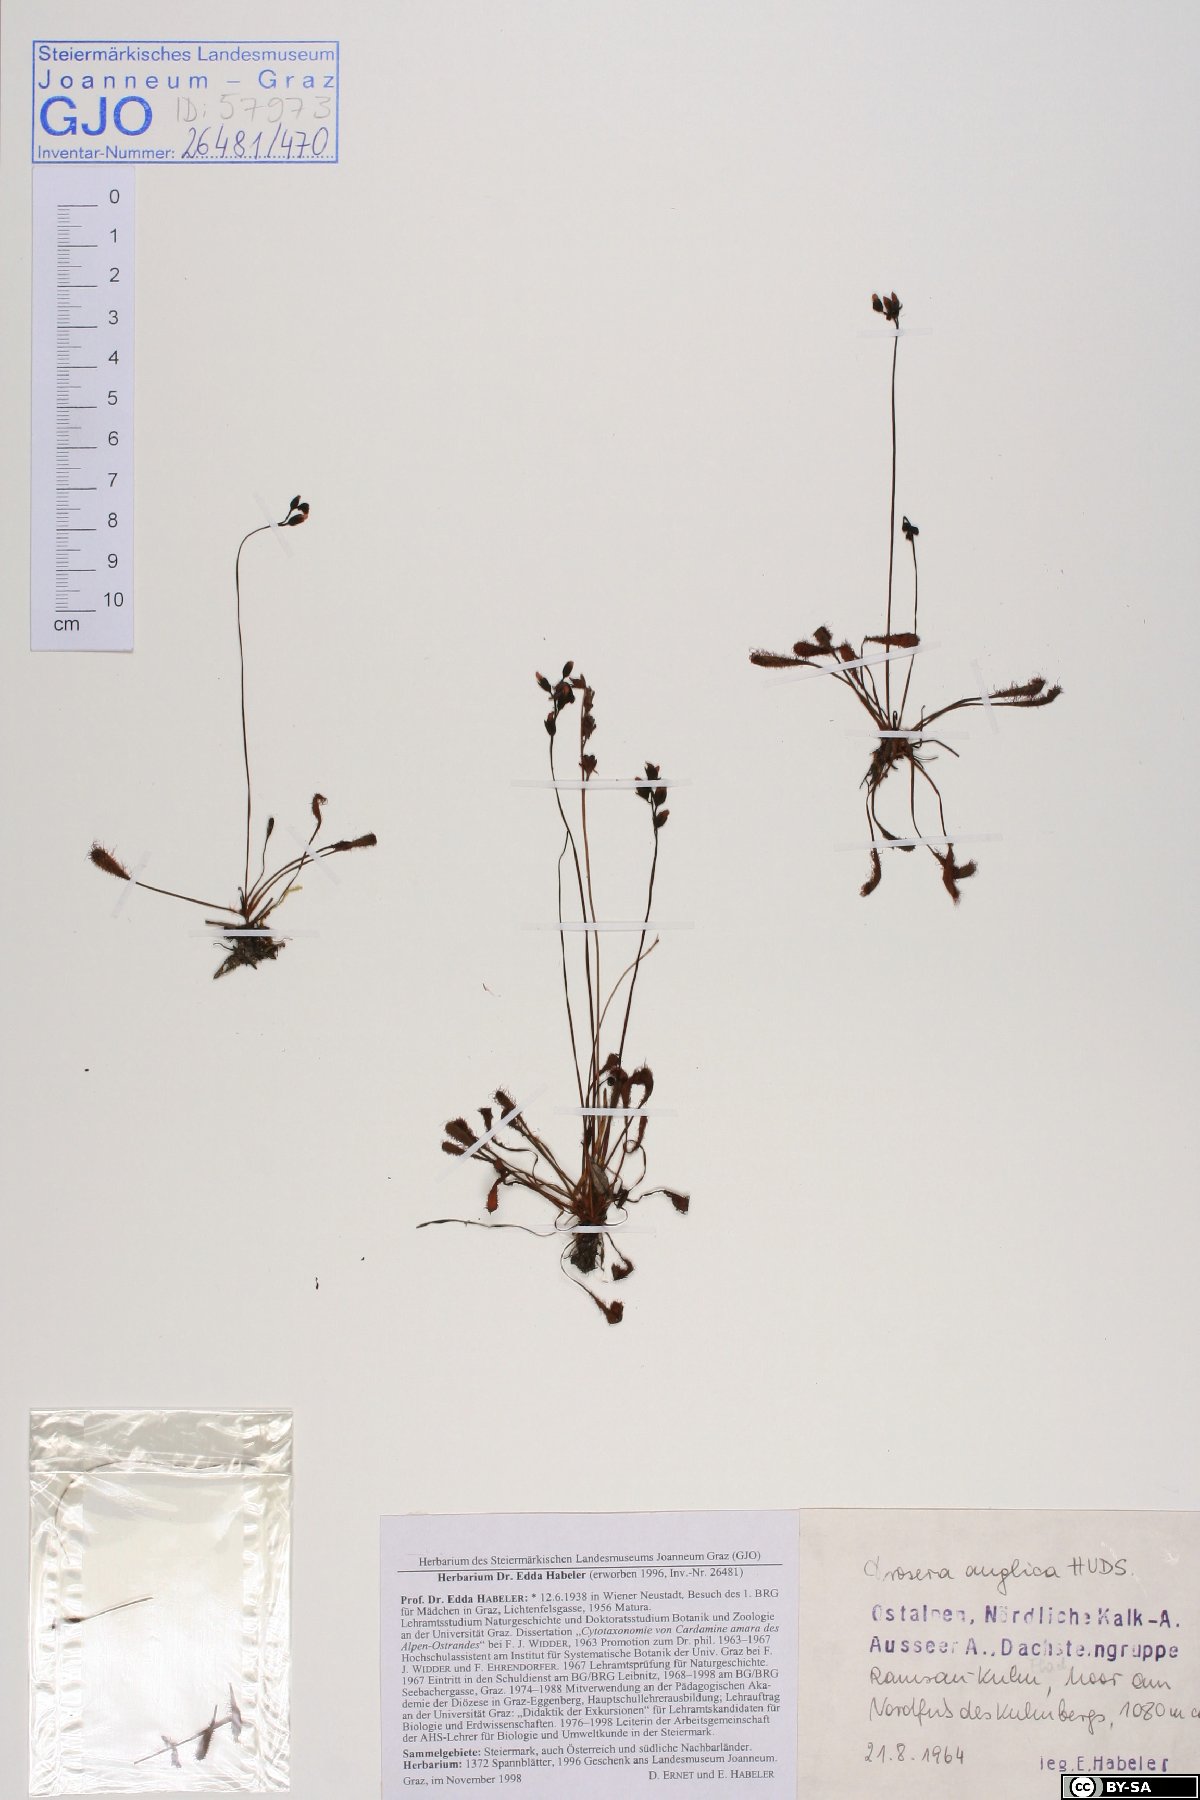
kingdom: Plantae
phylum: Tracheophyta
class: Magnoliopsida
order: Caryophyllales
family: Droseraceae
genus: Drosera
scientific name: Drosera anglica
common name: Great sundew
